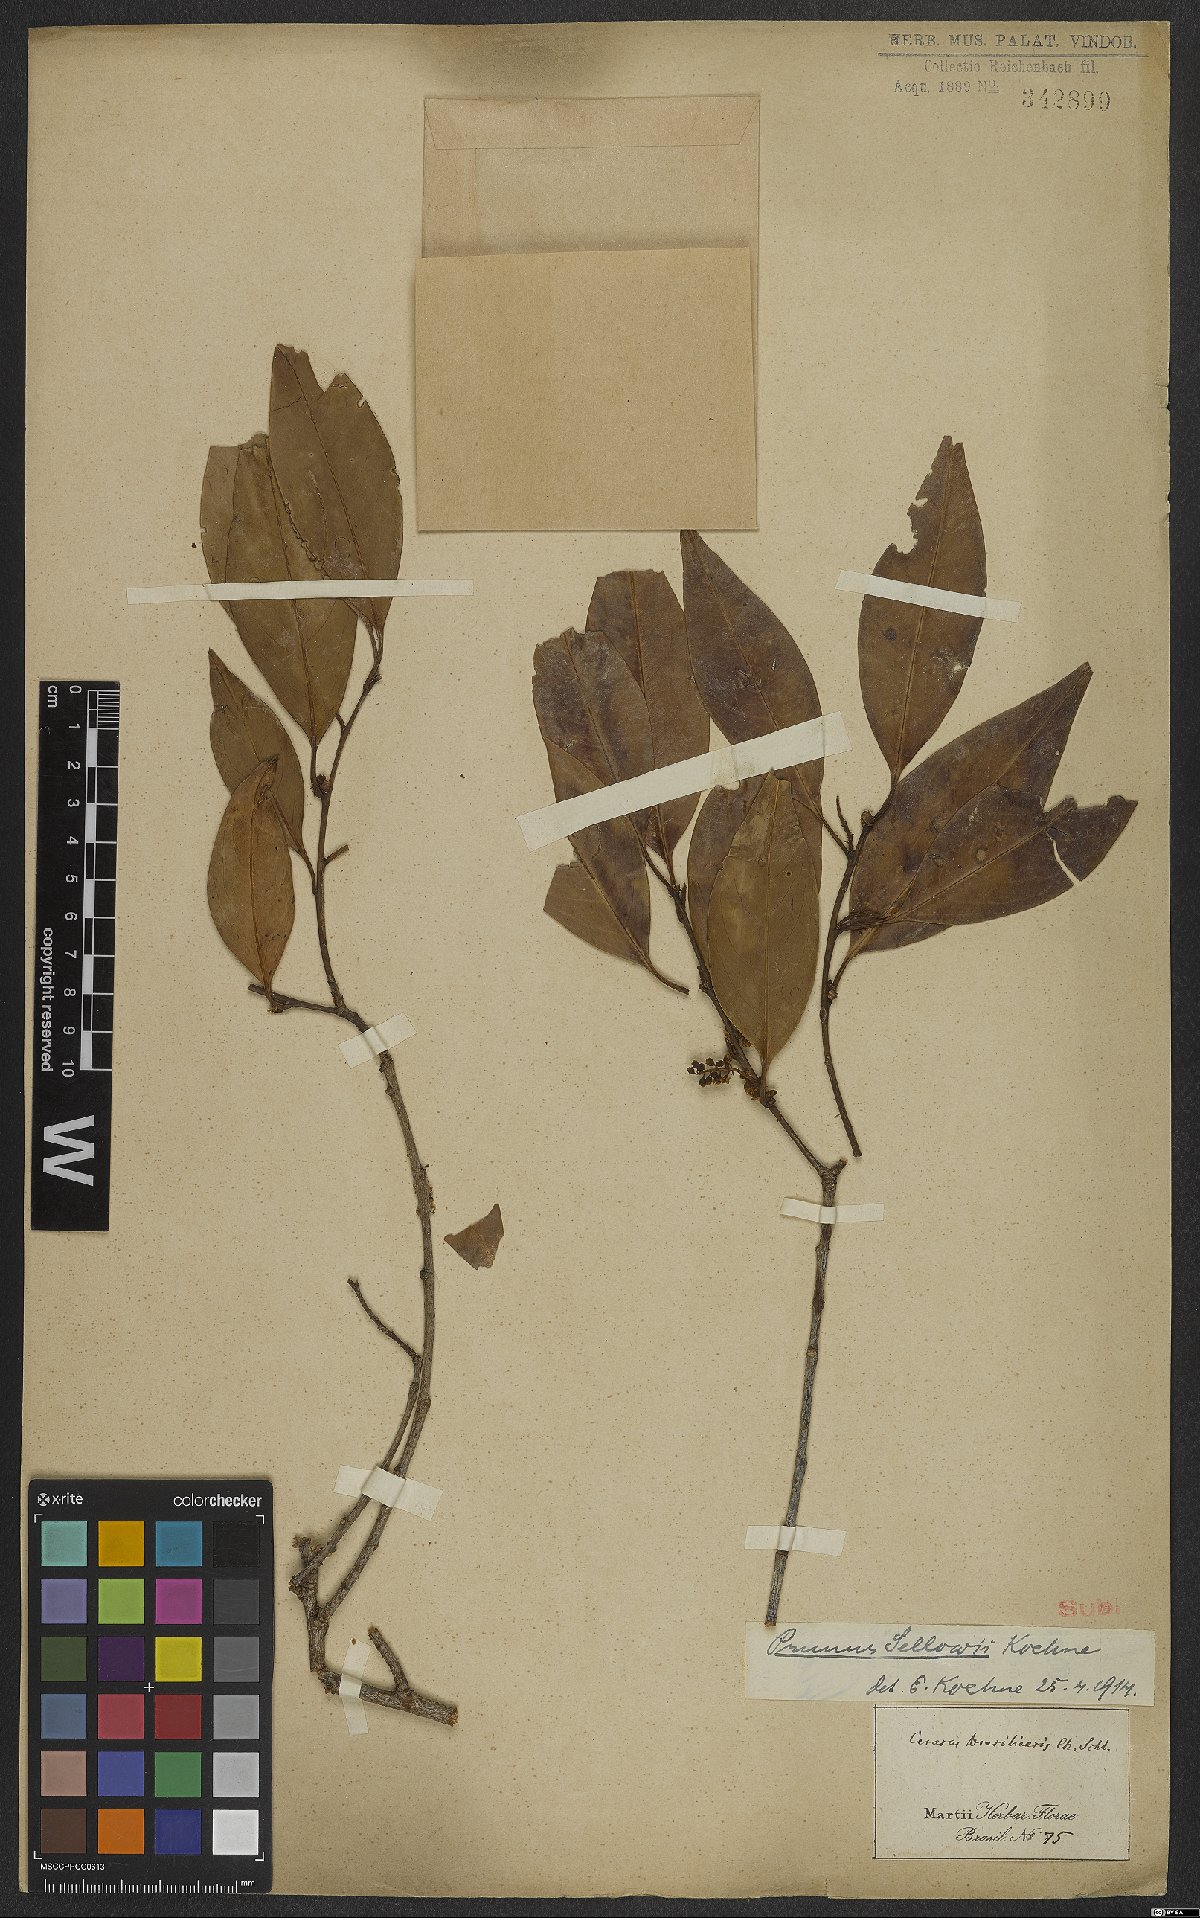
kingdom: Plantae
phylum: Tracheophyta
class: Magnoliopsida
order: Rosales
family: Rosaceae
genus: Prunus
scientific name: Prunus reflexa
